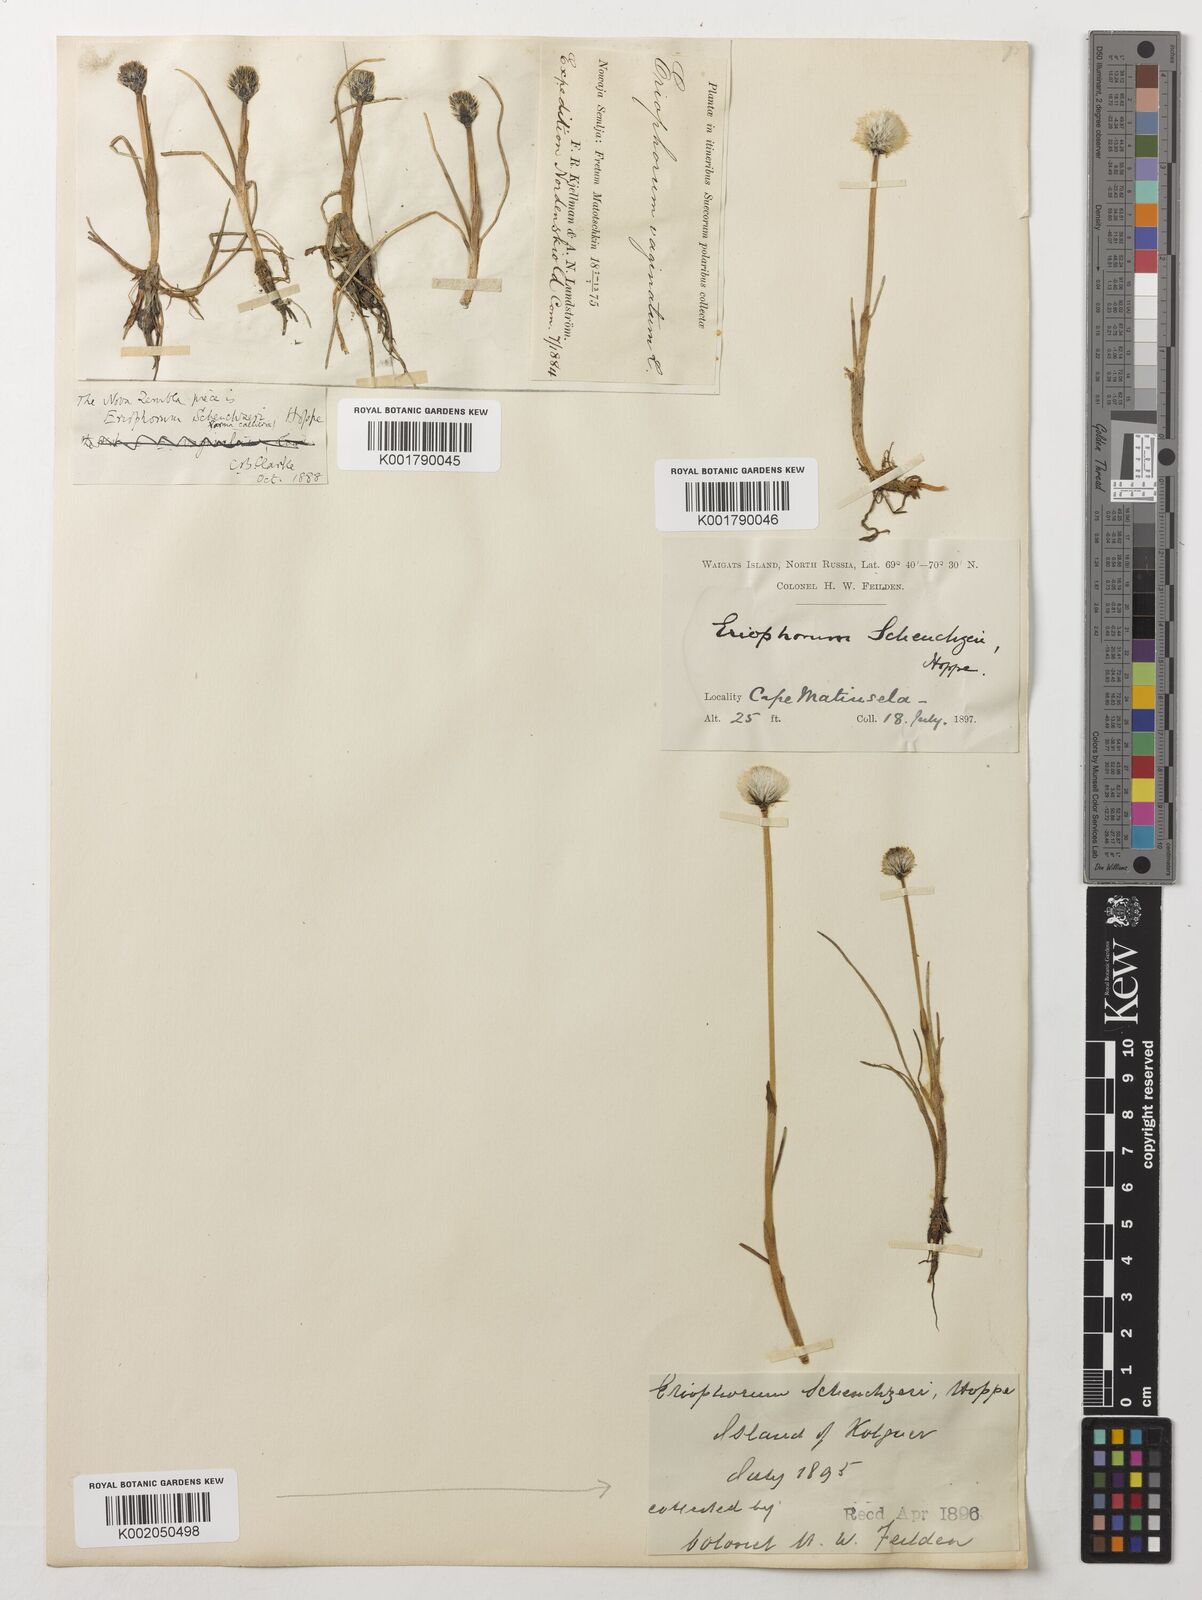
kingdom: Plantae
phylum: Tracheophyta
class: Liliopsida
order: Poales
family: Cyperaceae
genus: Eriophorum
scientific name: Eriophorum scheuchzeri
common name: Scheuchzer's cottongrass
